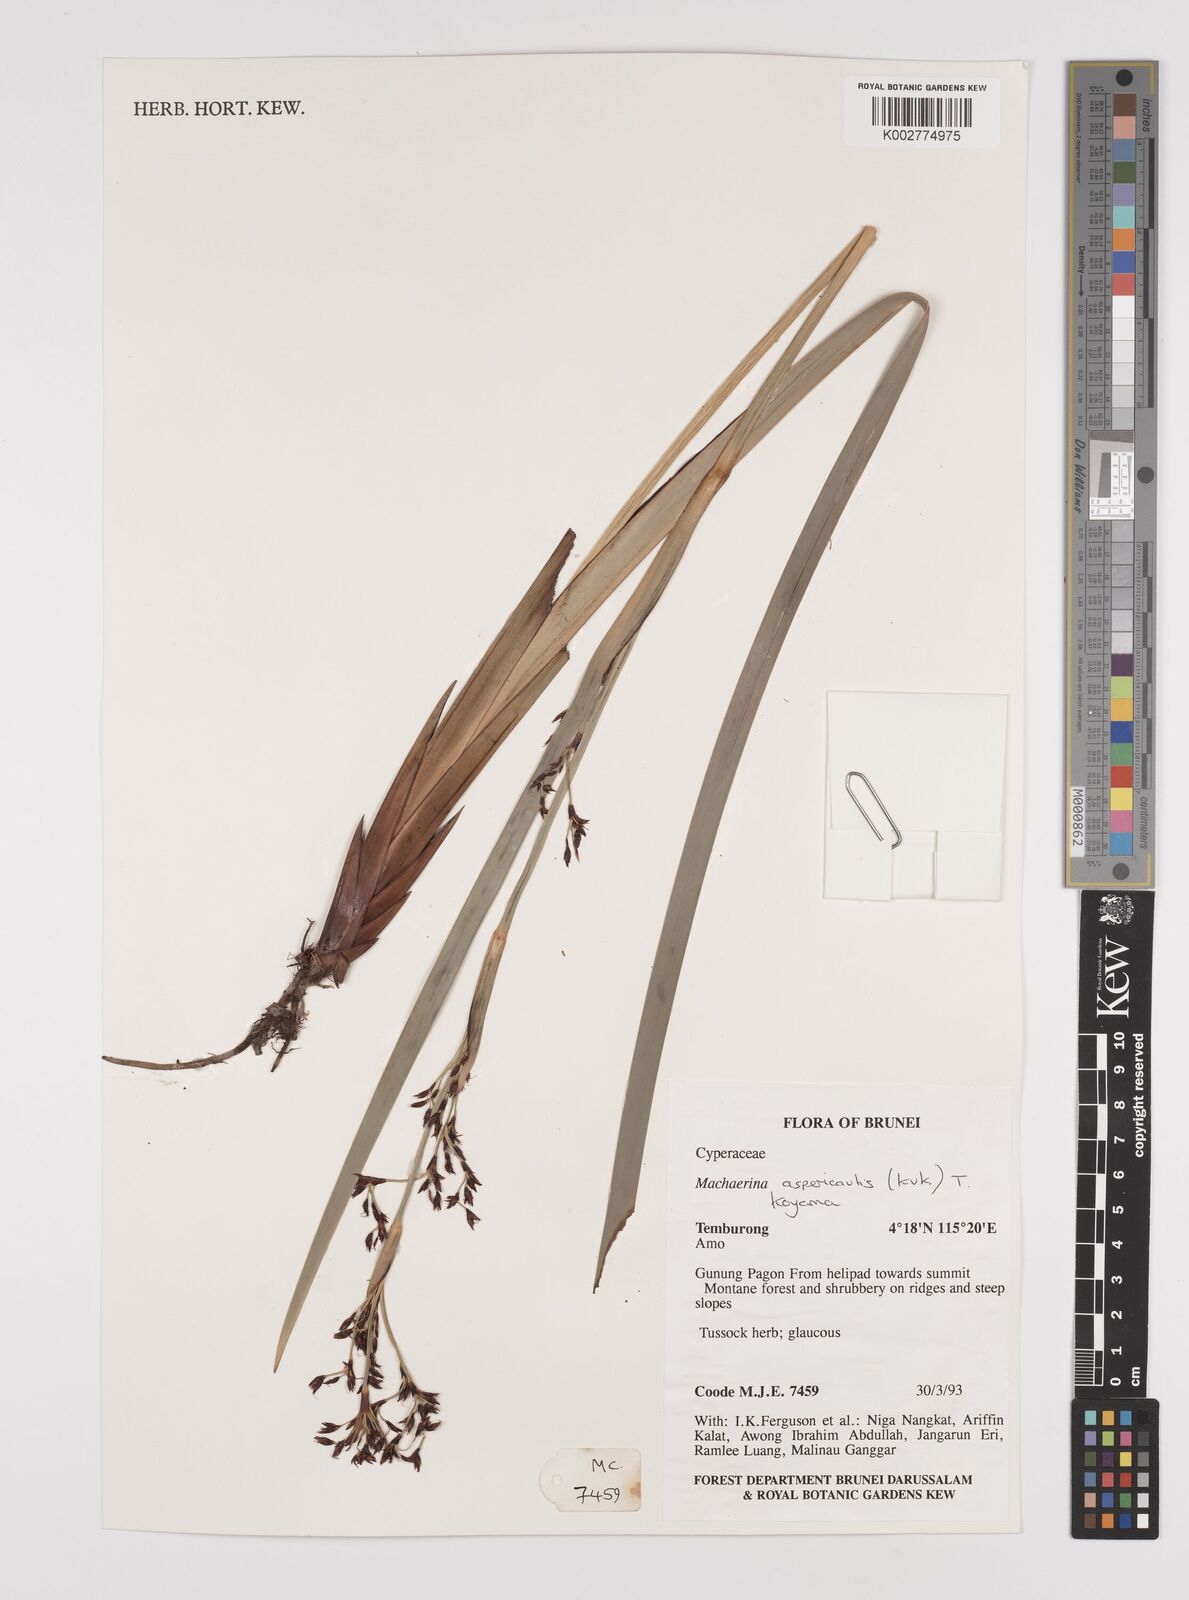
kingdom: Plantae
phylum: Tracheophyta
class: Liliopsida
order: Poales
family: Cyperaceae
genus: Machaerina
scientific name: Machaerina aspericaulis
